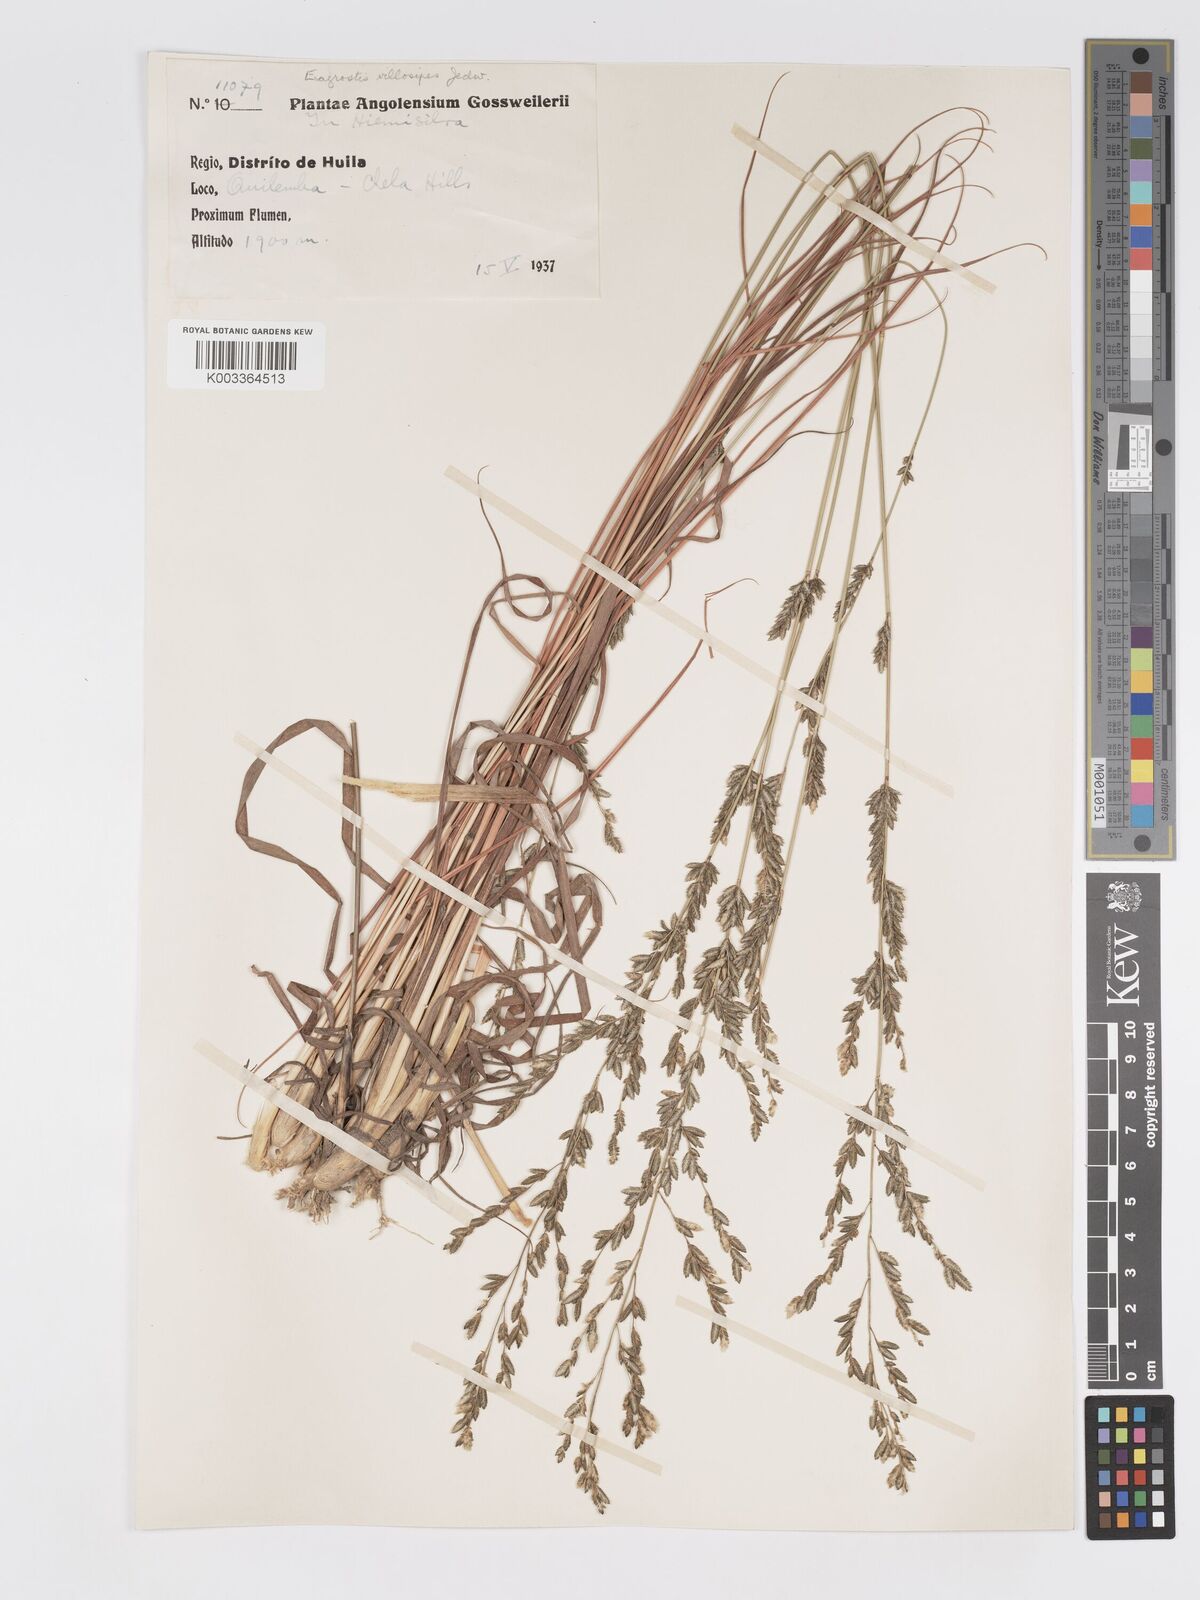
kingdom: Plantae
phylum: Tracheophyta
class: Liliopsida
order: Poales
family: Poaceae
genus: Eragrostis
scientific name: Eragrostis sclerantha
